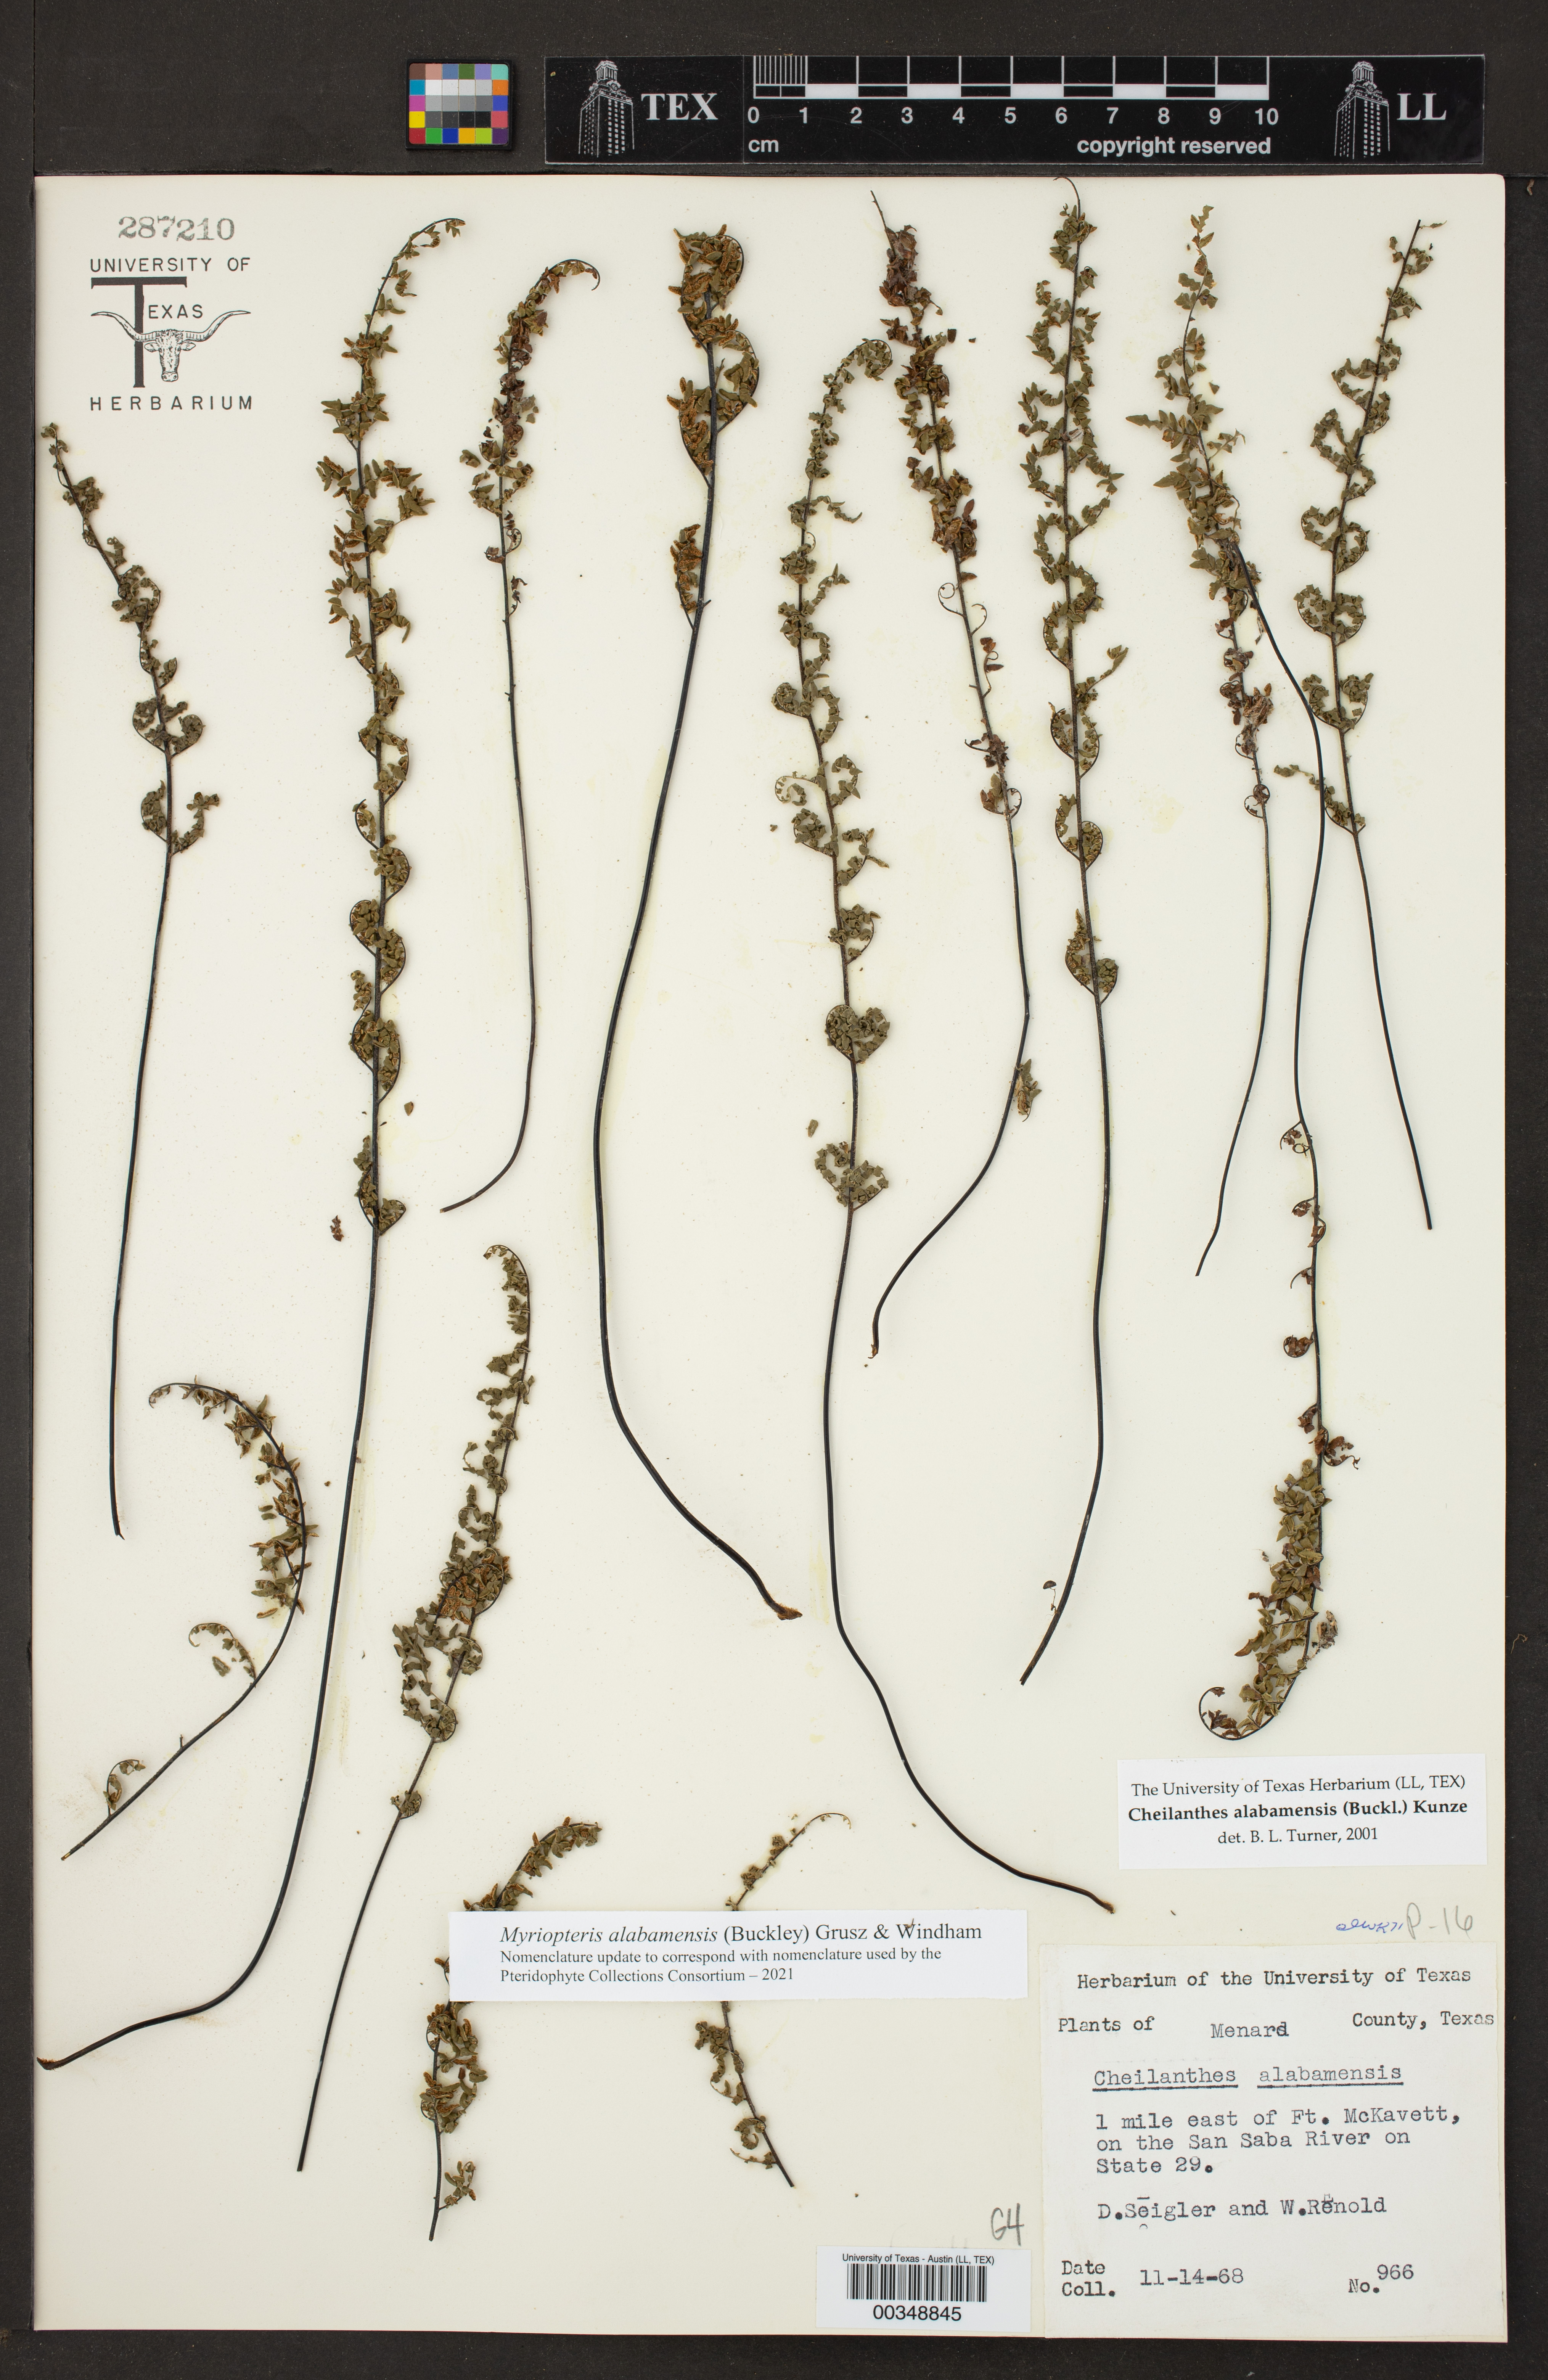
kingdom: Plantae
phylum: Tracheophyta
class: Polypodiopsida
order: Polypodiales
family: Pteridaceae
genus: Myriopteris
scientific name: Myriopteris alabamensis
